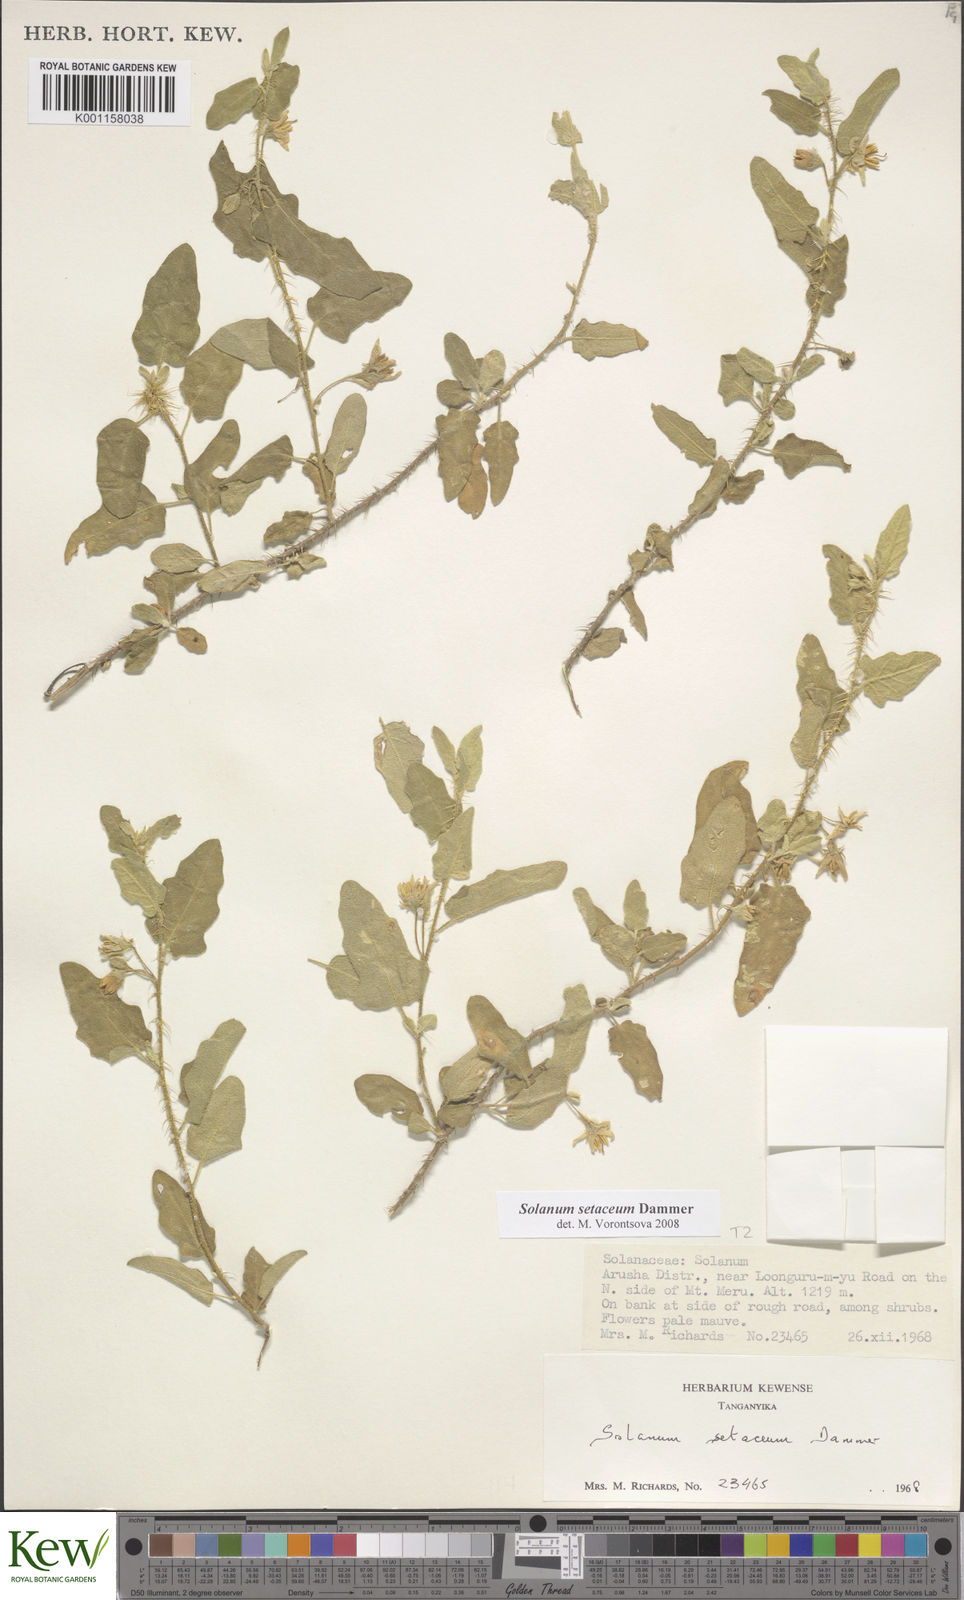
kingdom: Plantae
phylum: Tracheophyta
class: Magnoliopsida
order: Solanales
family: Solanaceae
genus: Solanum
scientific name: Solanum setaceum
